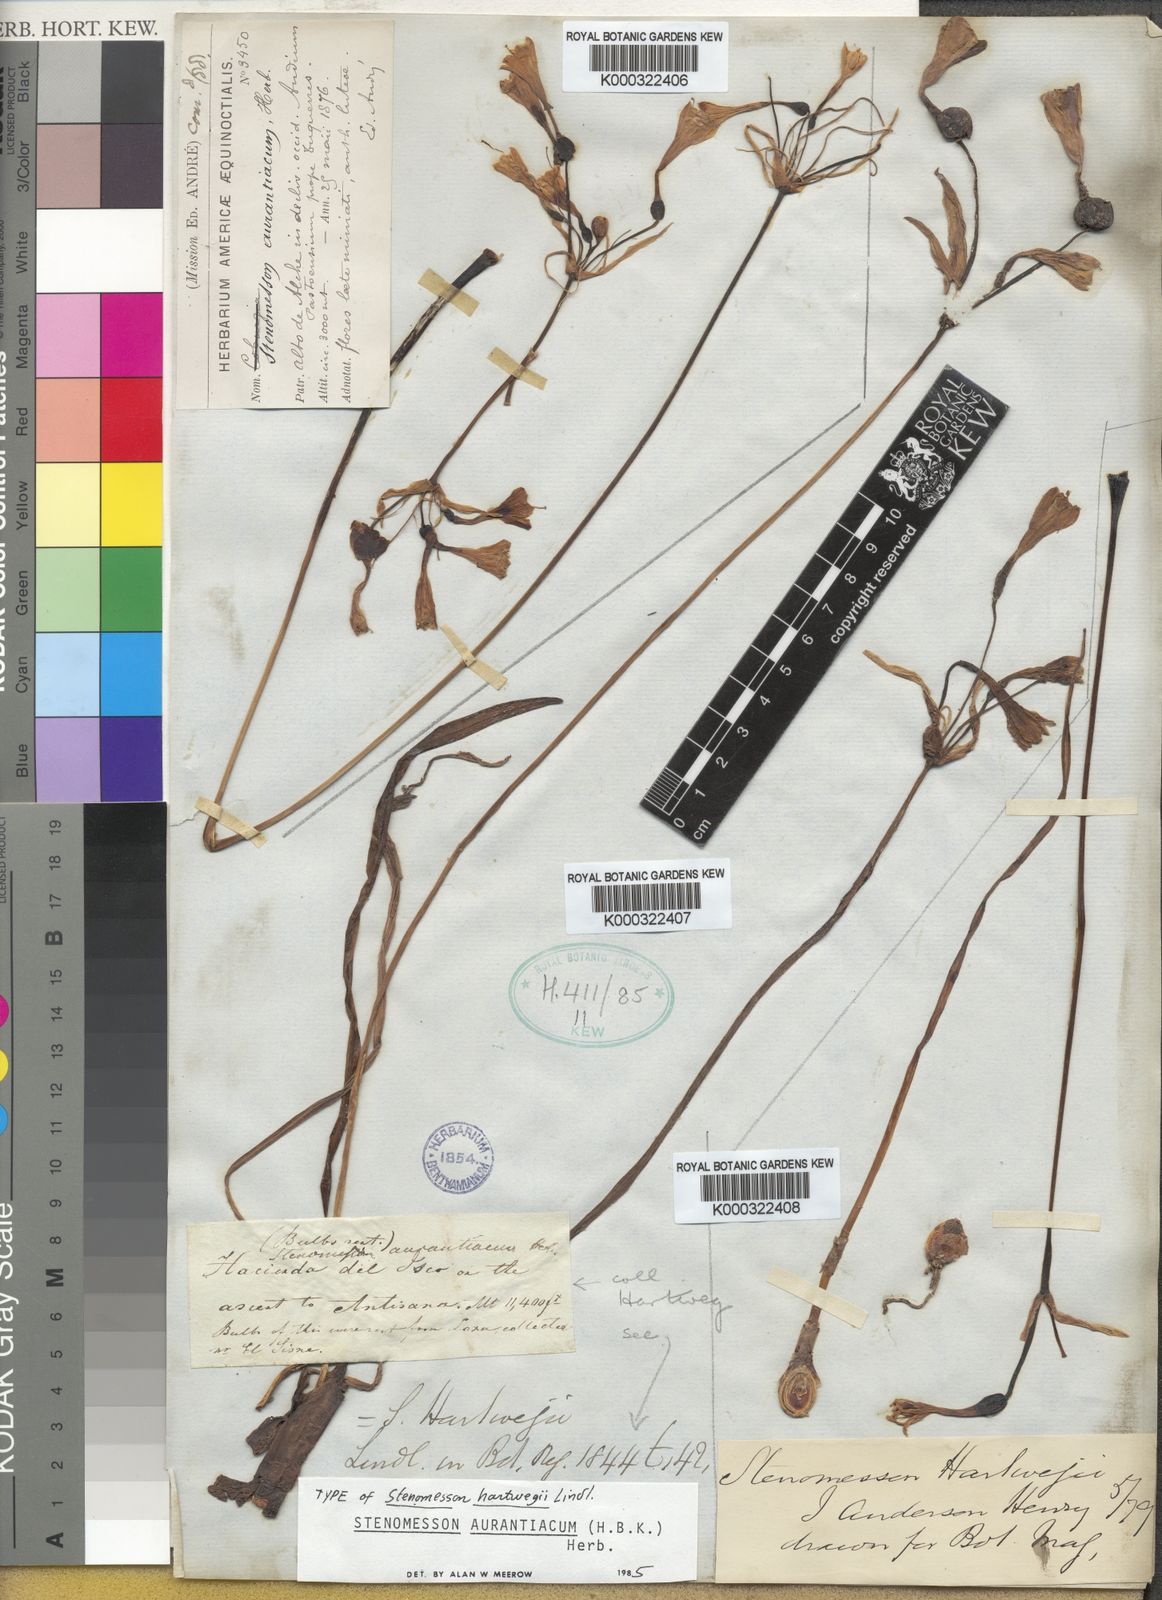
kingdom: Plantae
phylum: Tracheophyta
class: Liliopsida
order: Asparagales
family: Amaryllidaceae
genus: Stenomesson
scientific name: Stenomesson aurantiacum
